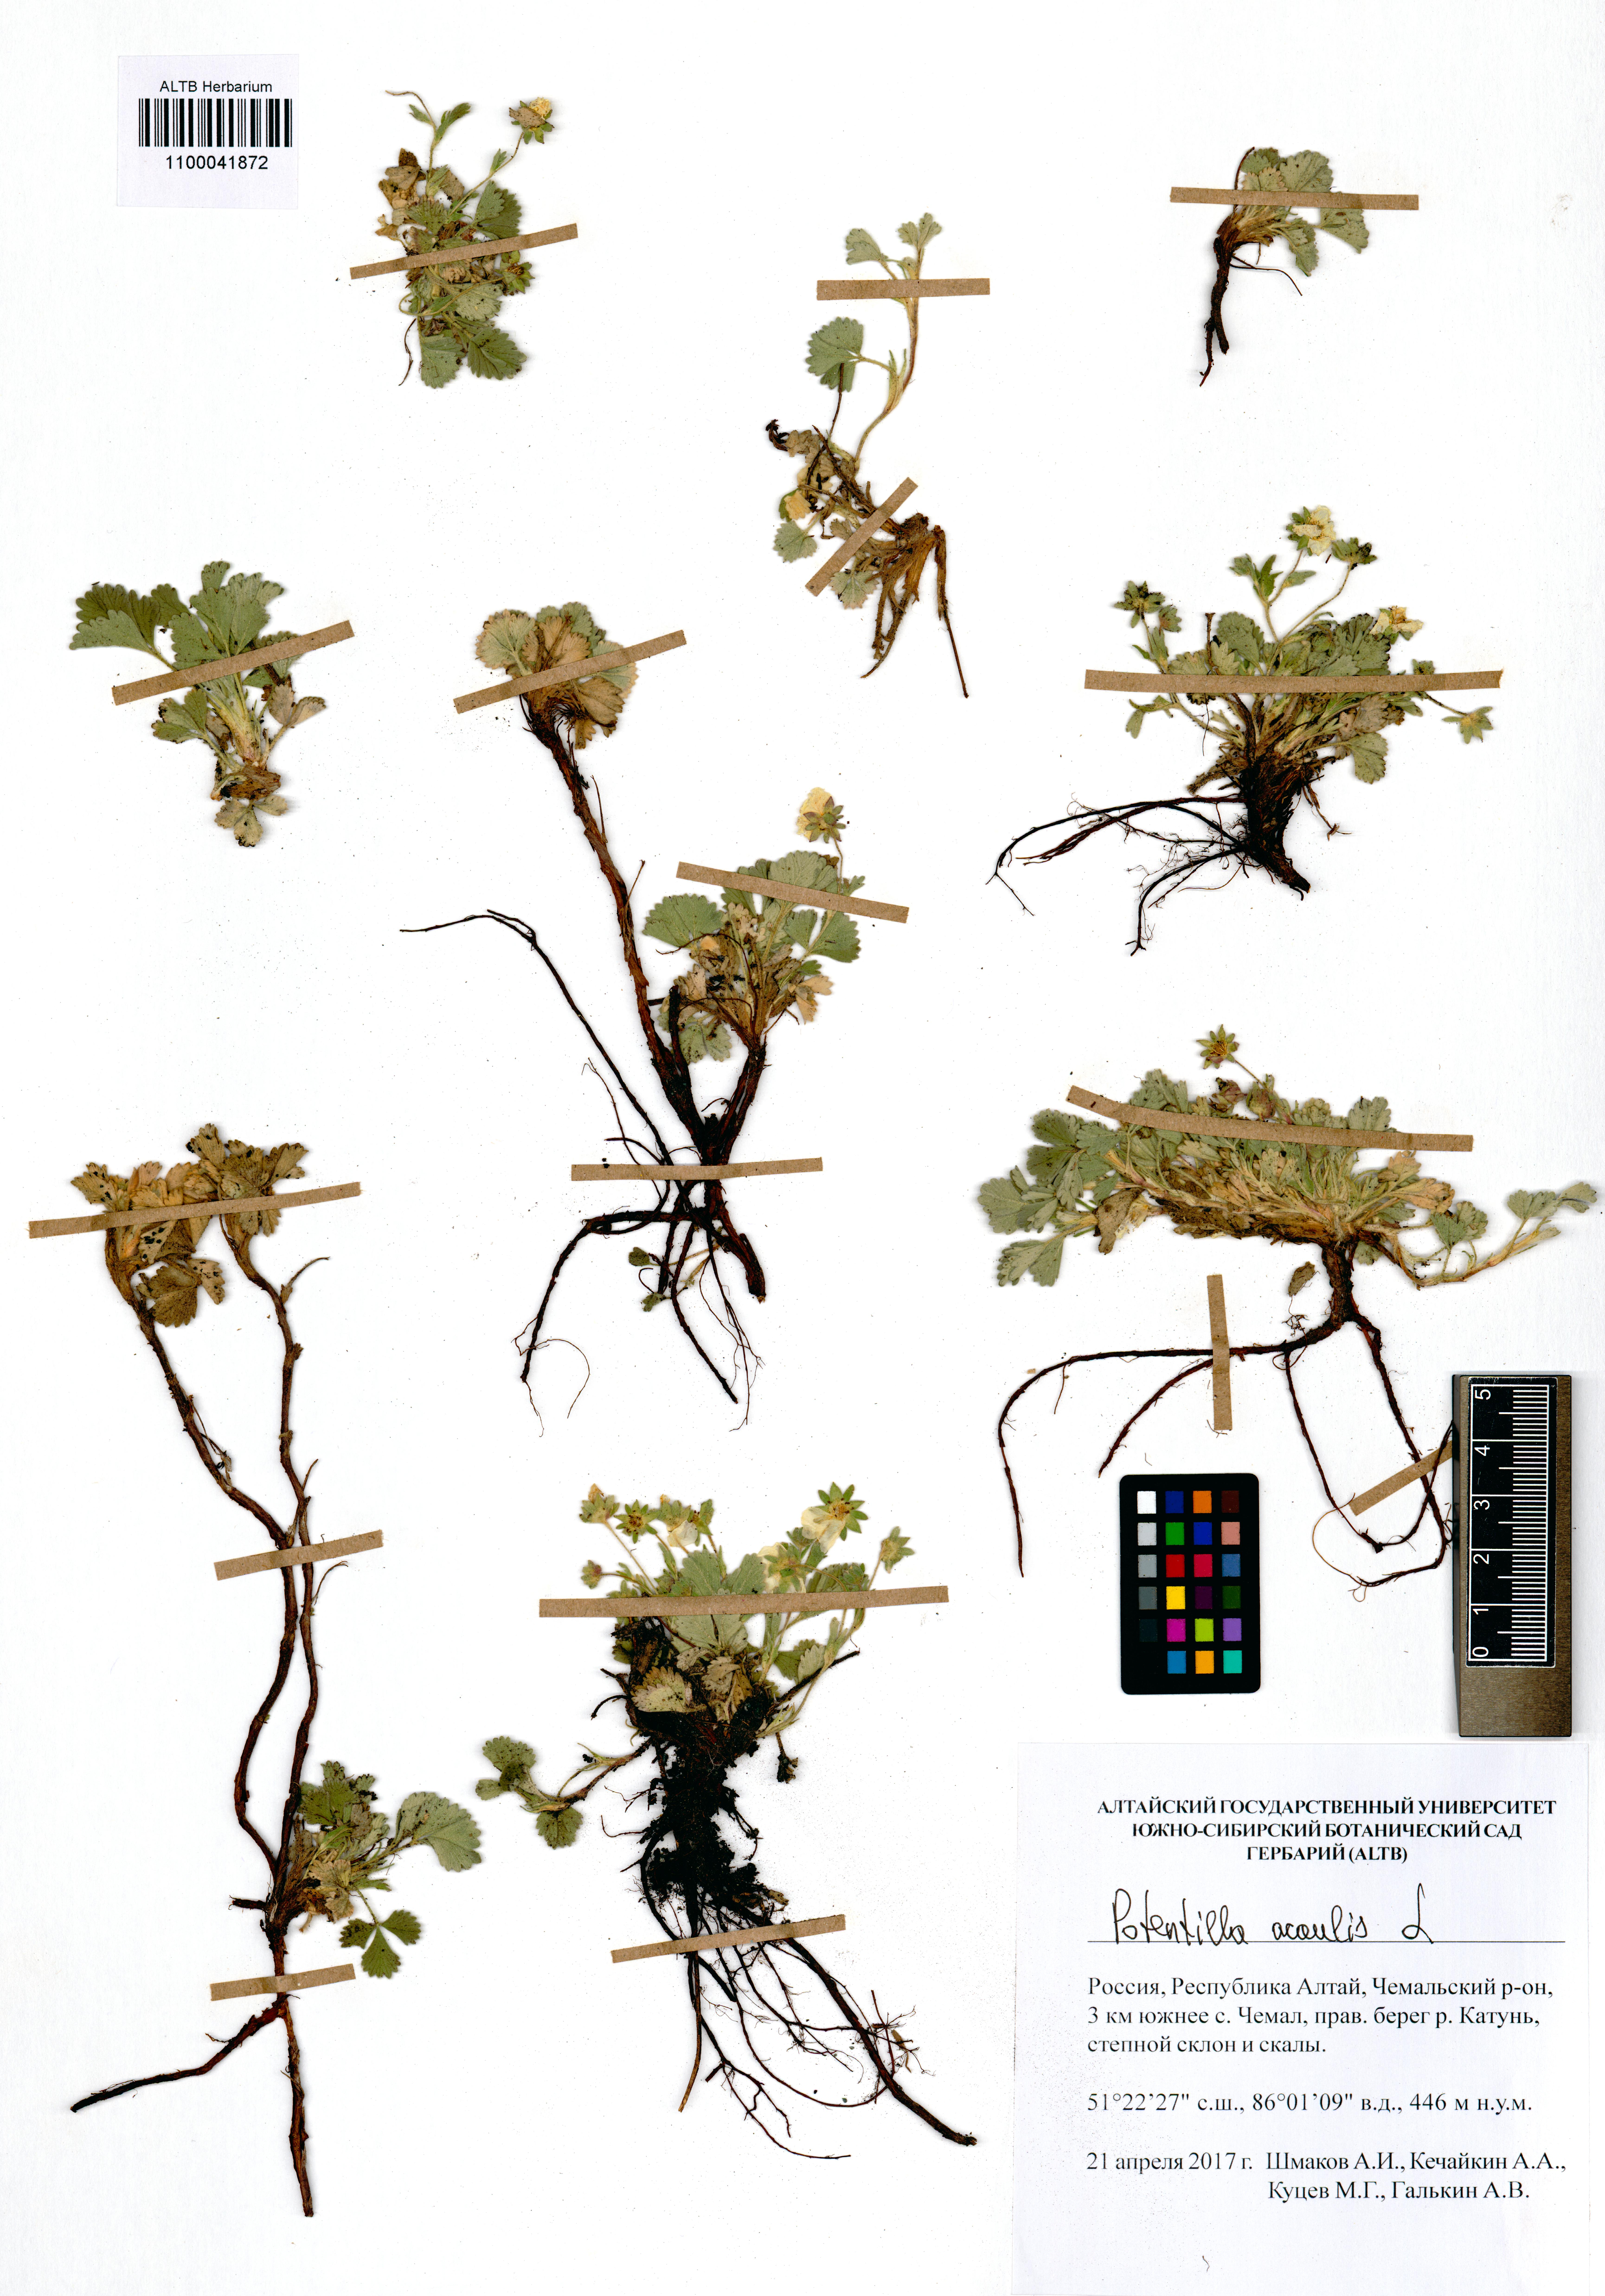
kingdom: Plantae
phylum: Tracheophyta
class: Magnoliopsida
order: Rosales
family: Rosaceae
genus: Potentilla
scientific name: Potentilla acaulis
